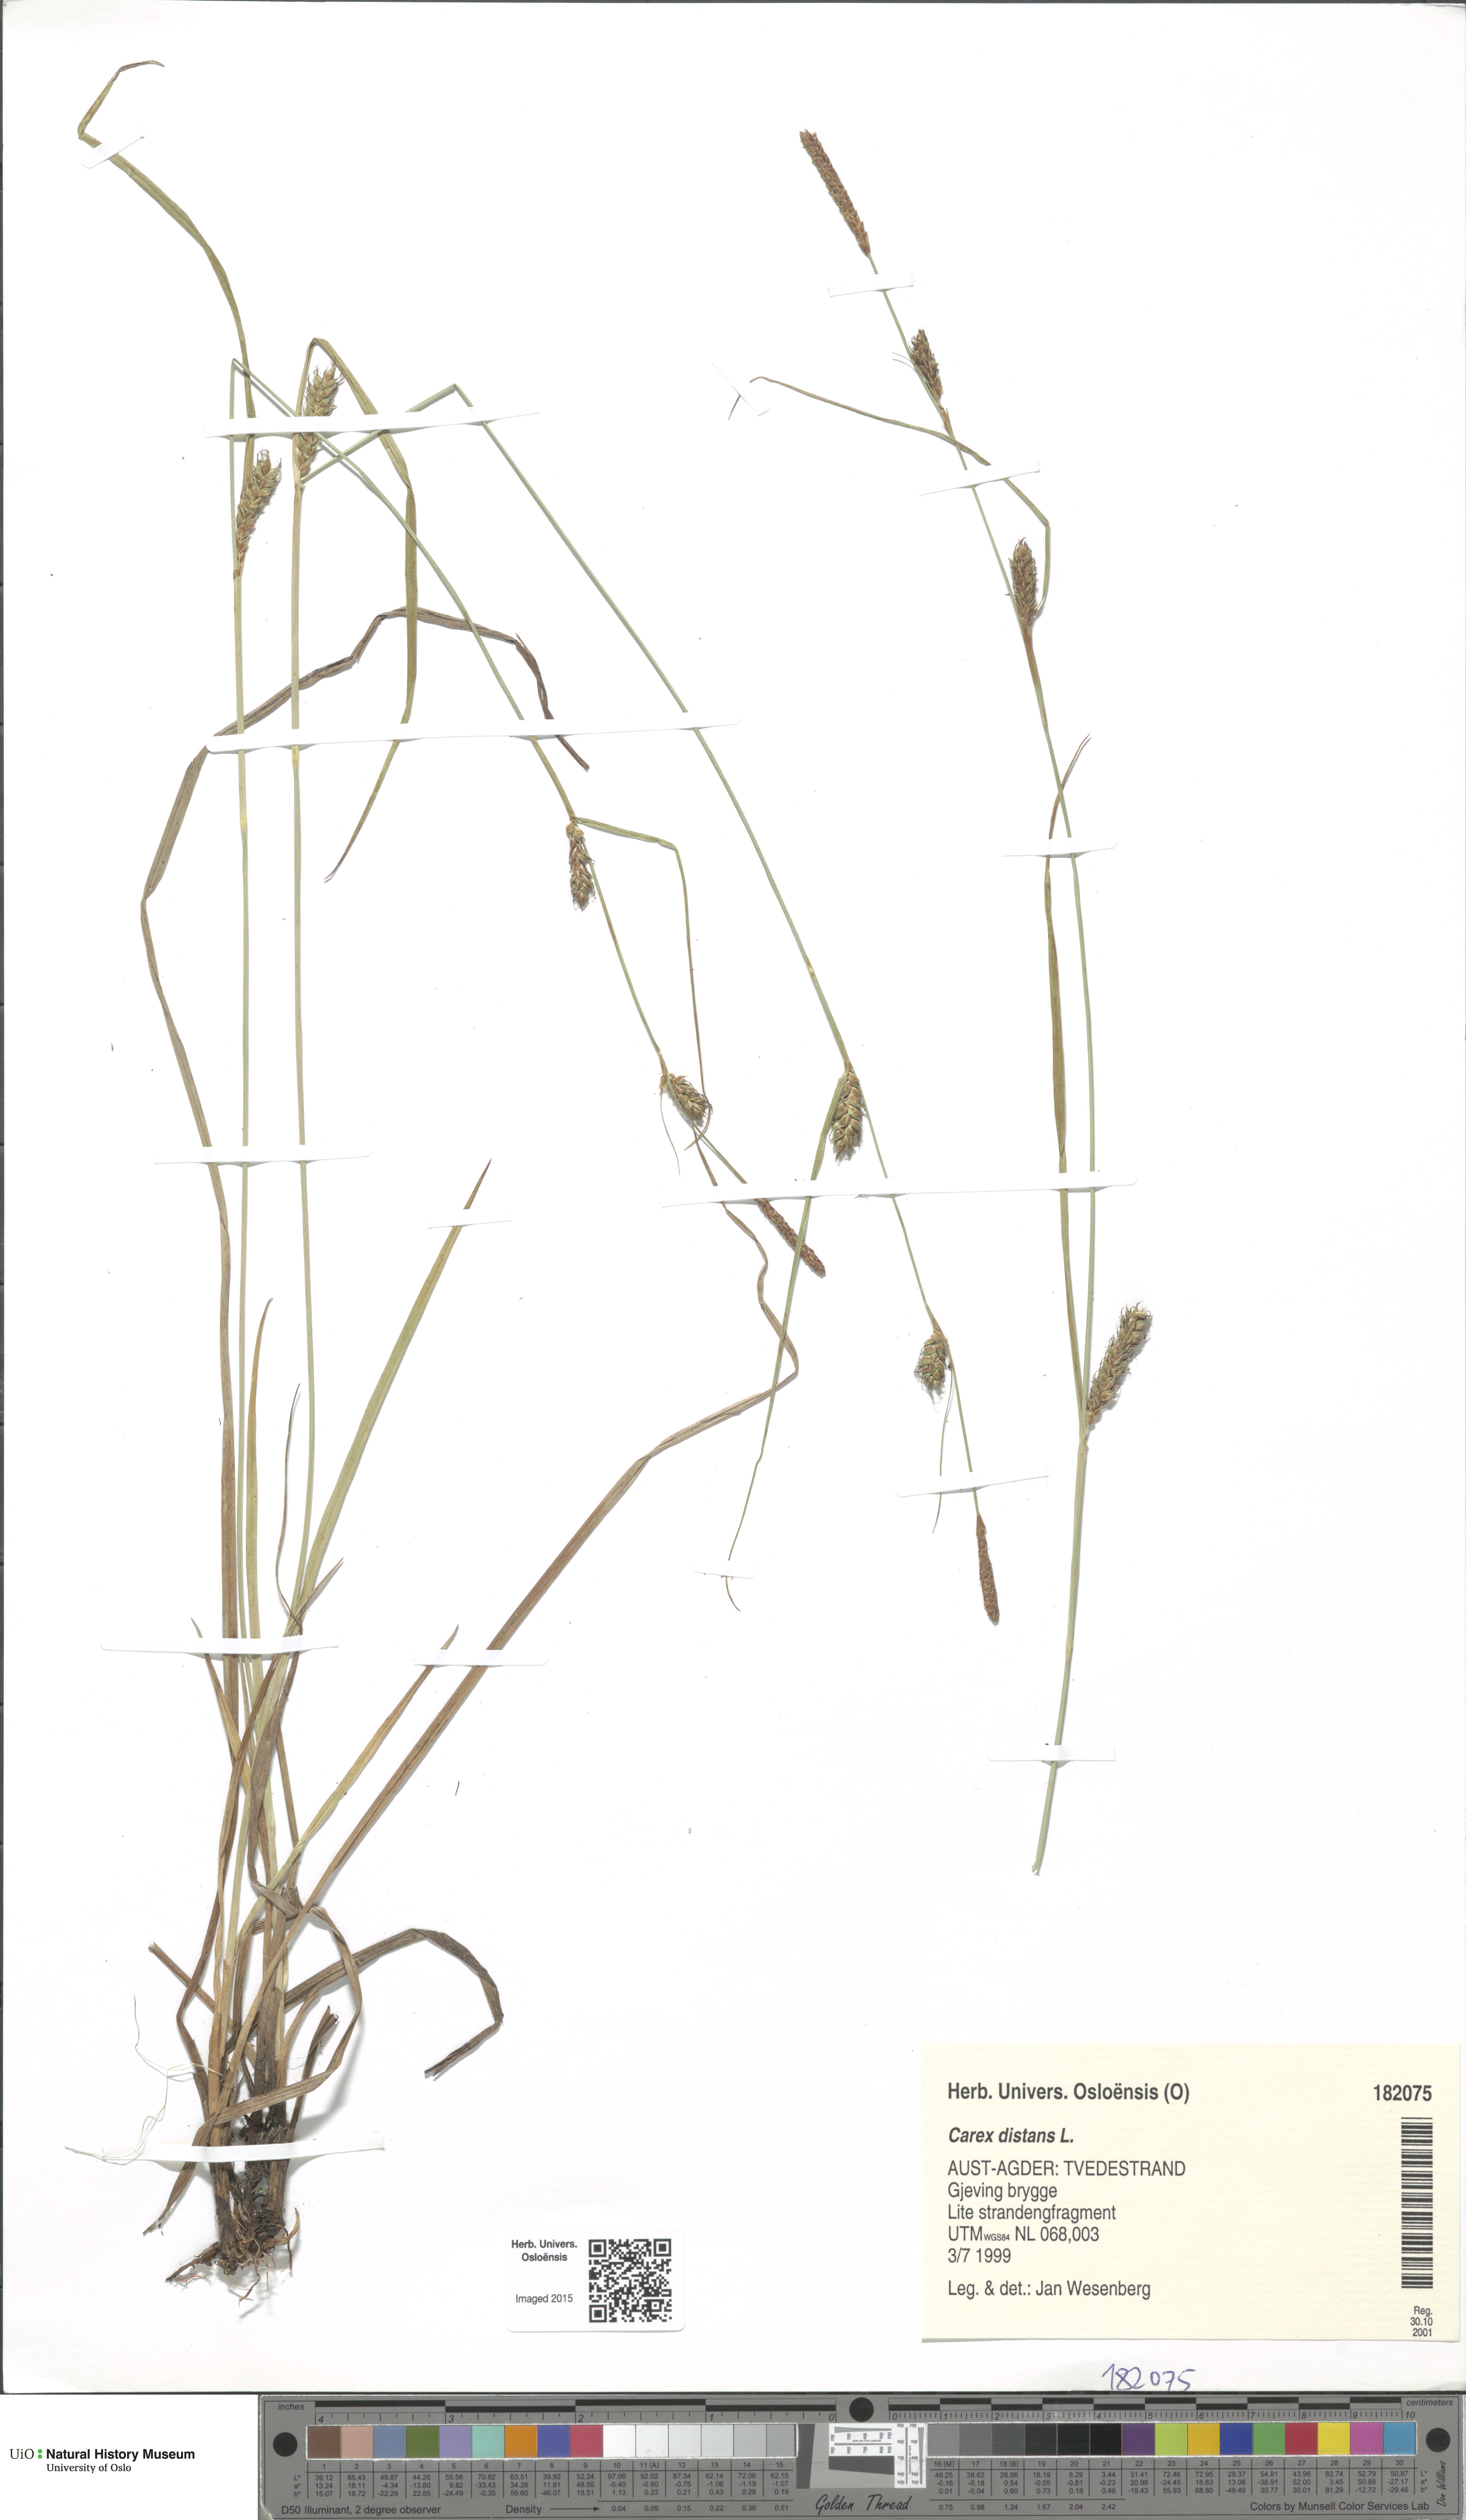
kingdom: Plantae
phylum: Tracheophyta
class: Liliopsida
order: Poales
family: Cyperaceae
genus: Carex
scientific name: Carex distans
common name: Distant sedge
